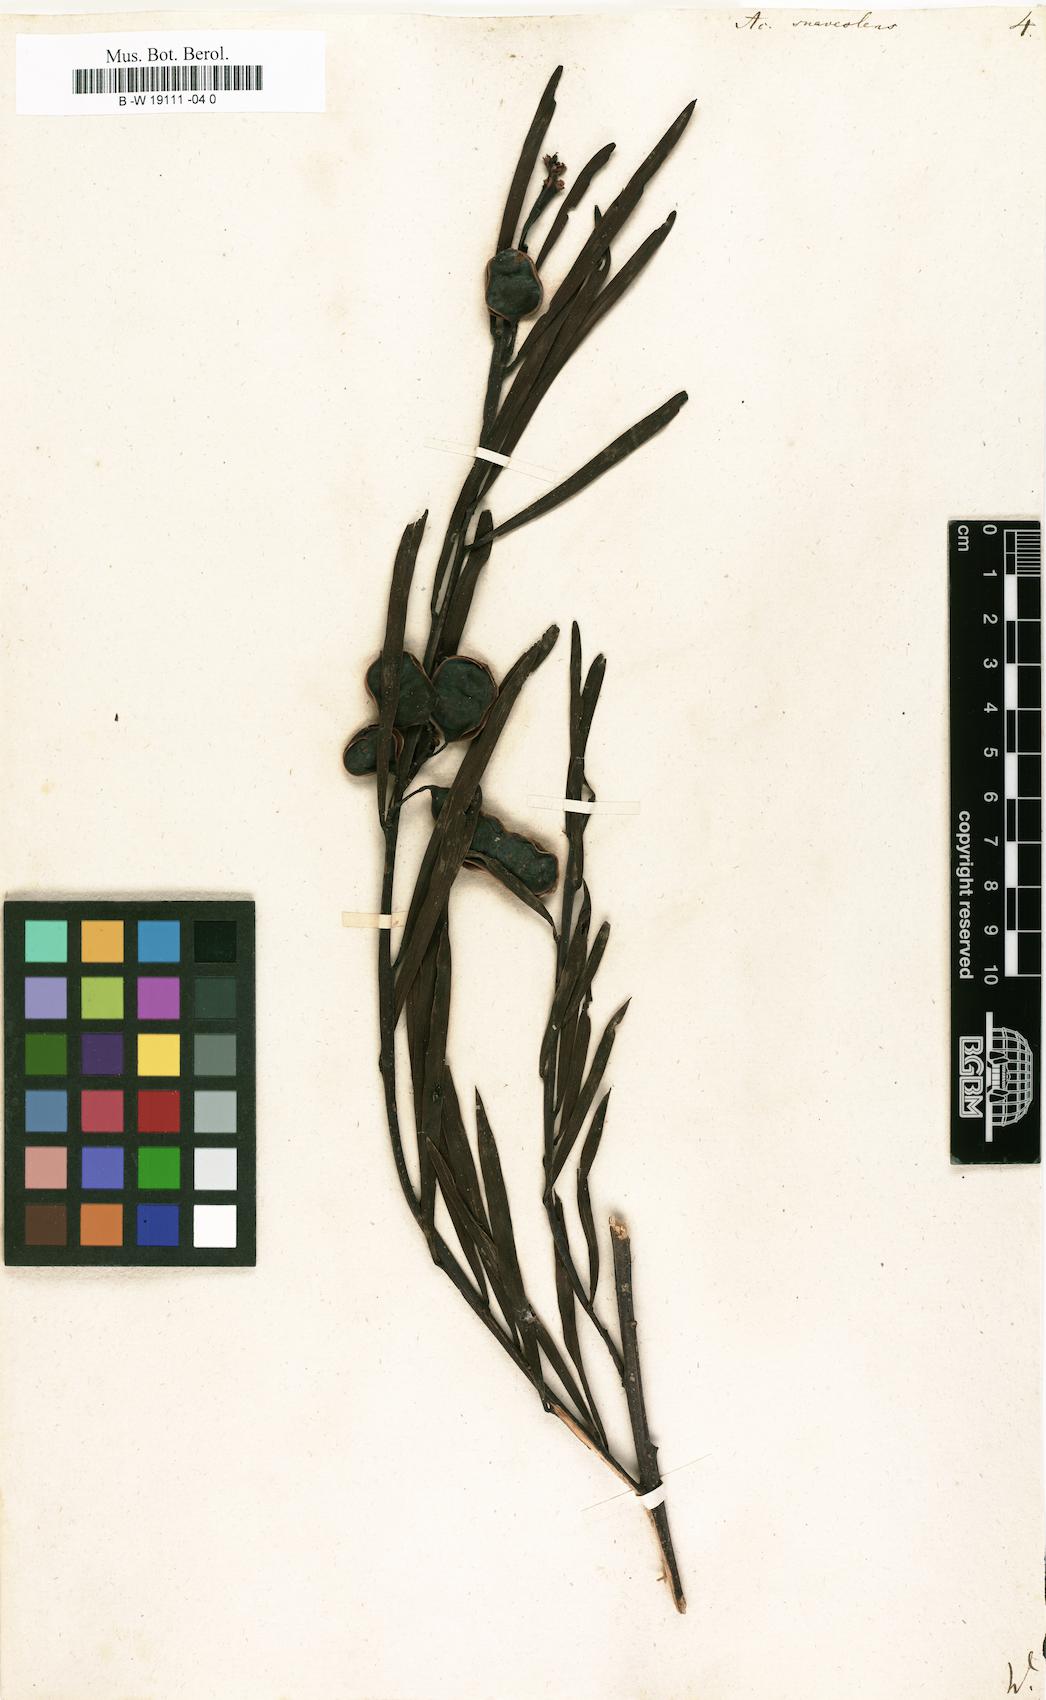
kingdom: Plantae
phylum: Tracheophyta
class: Magnoliopsida
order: Fabales
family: Fabaceae
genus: Acacia
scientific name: Acacia suaveolens
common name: Sweet acacia
